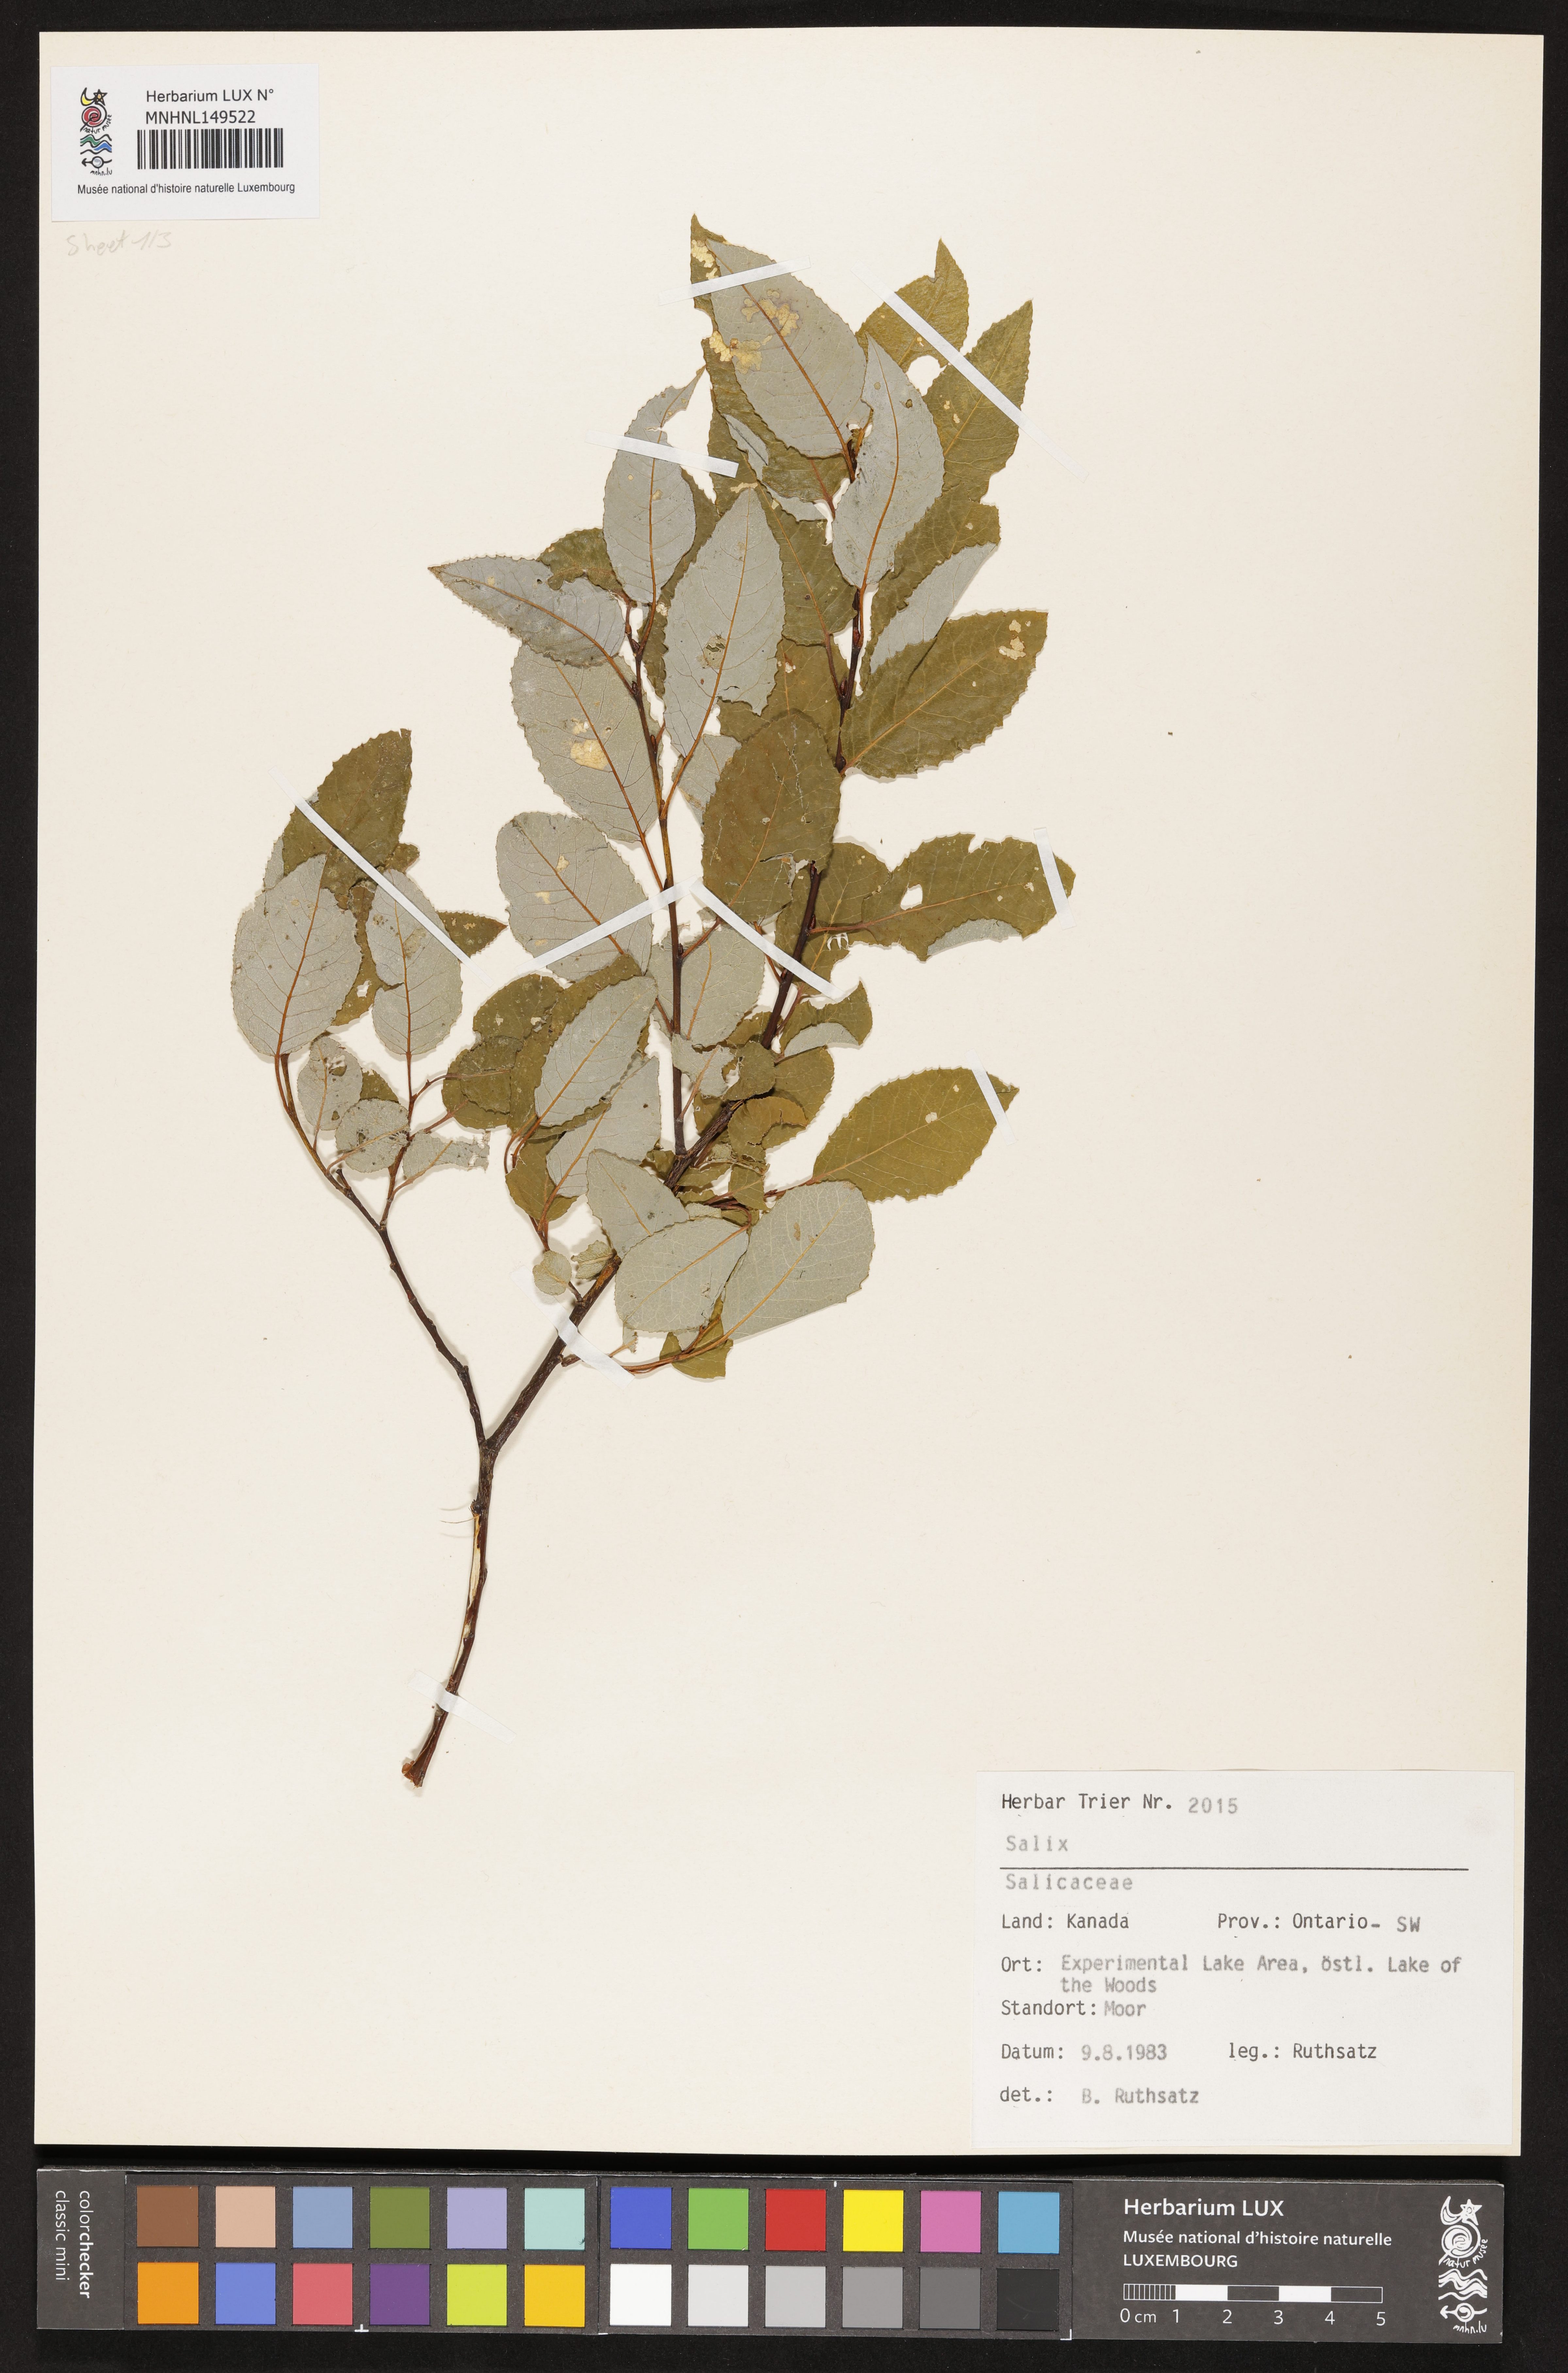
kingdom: Plantae
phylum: Tracheophyta
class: Magnoliopsida
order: Malpighiales
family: Salicaceae
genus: Salix
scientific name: Salix
